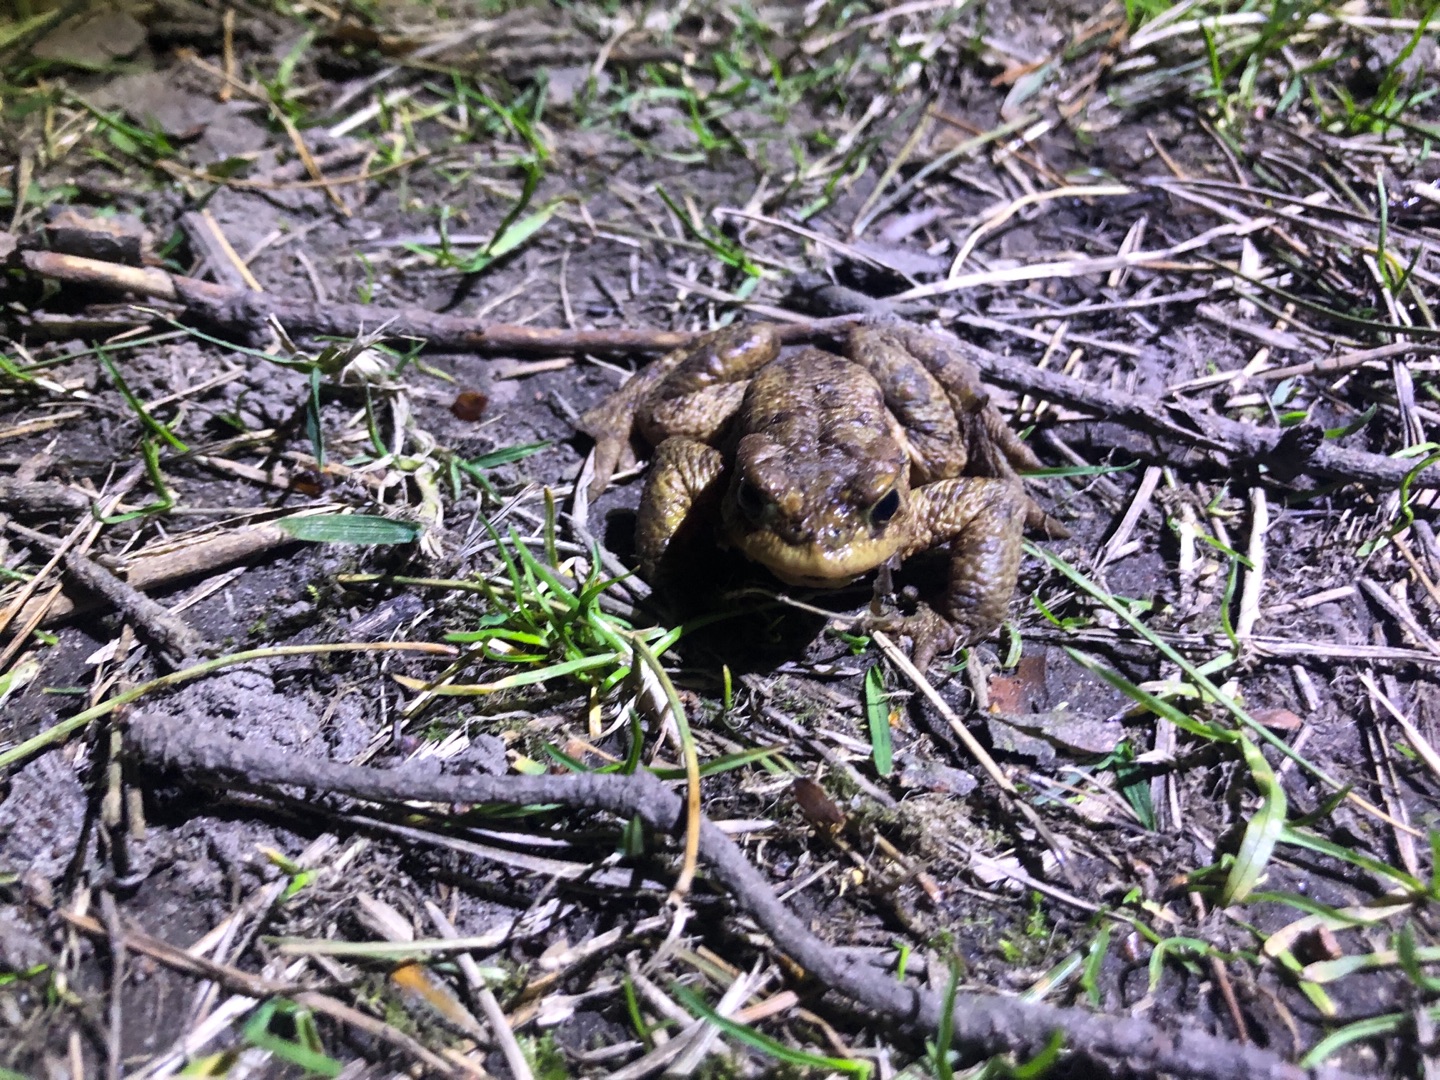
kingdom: Animalia
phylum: Chordata
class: Amphibia
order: Anura
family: Bufonidae
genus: Bufo
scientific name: Bufo bufo
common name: Skrubtudse
